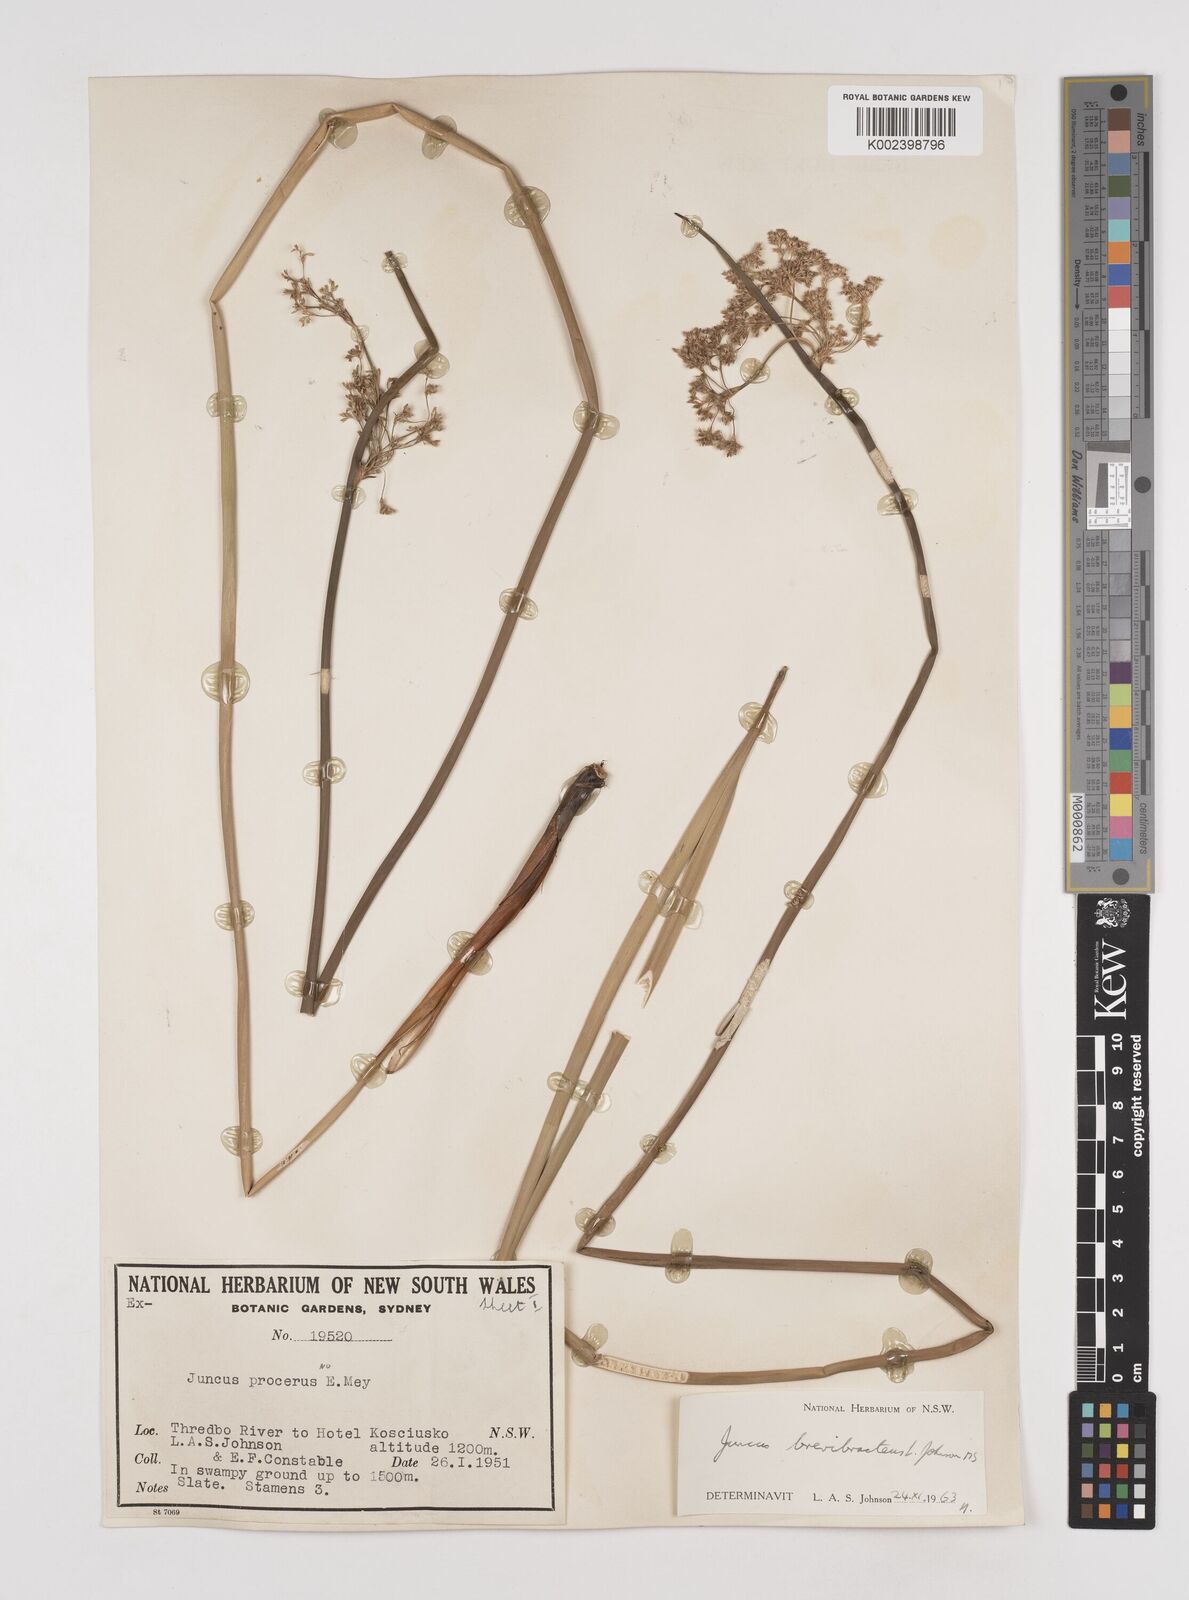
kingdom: Plantae
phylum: Tracheophyta
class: Liliopsida
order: Poales
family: Juncaceae
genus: Juncus
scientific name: Juncus brevibracteus
